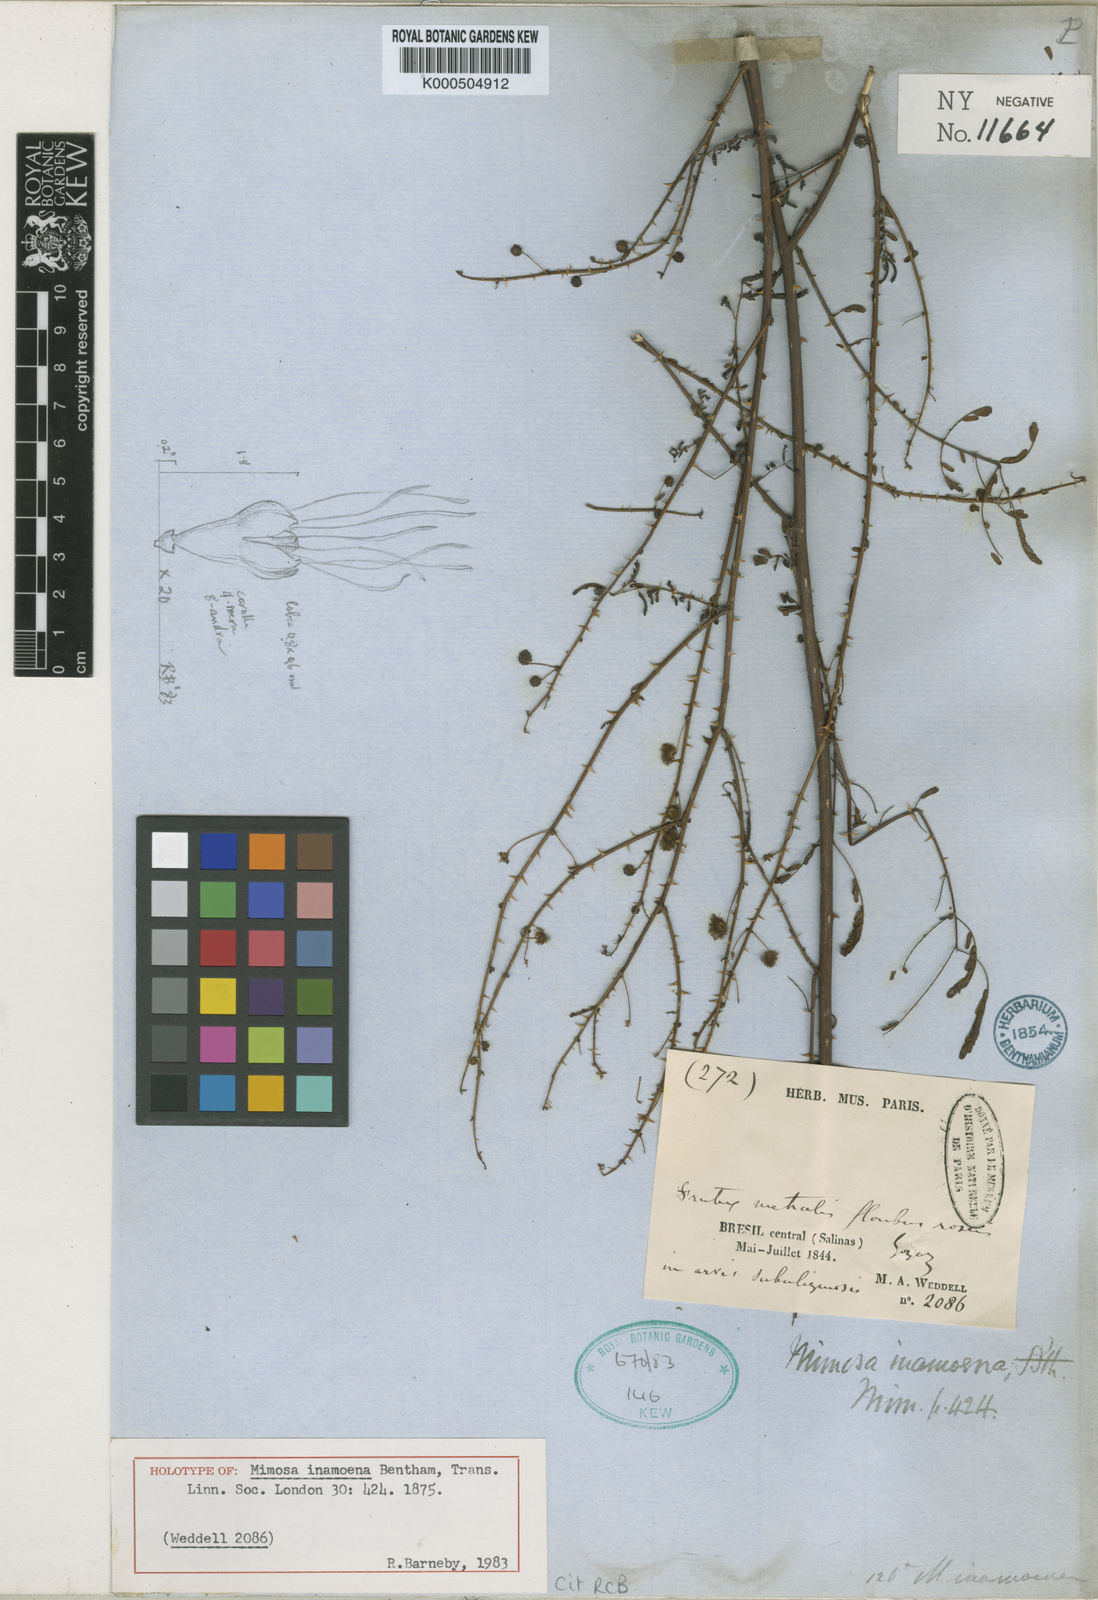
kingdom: Plantae
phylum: Tracheophyta
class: Magnoliopsida
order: Fabales
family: Fabaceae
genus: Mimosa
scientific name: Mimosa inamoena
